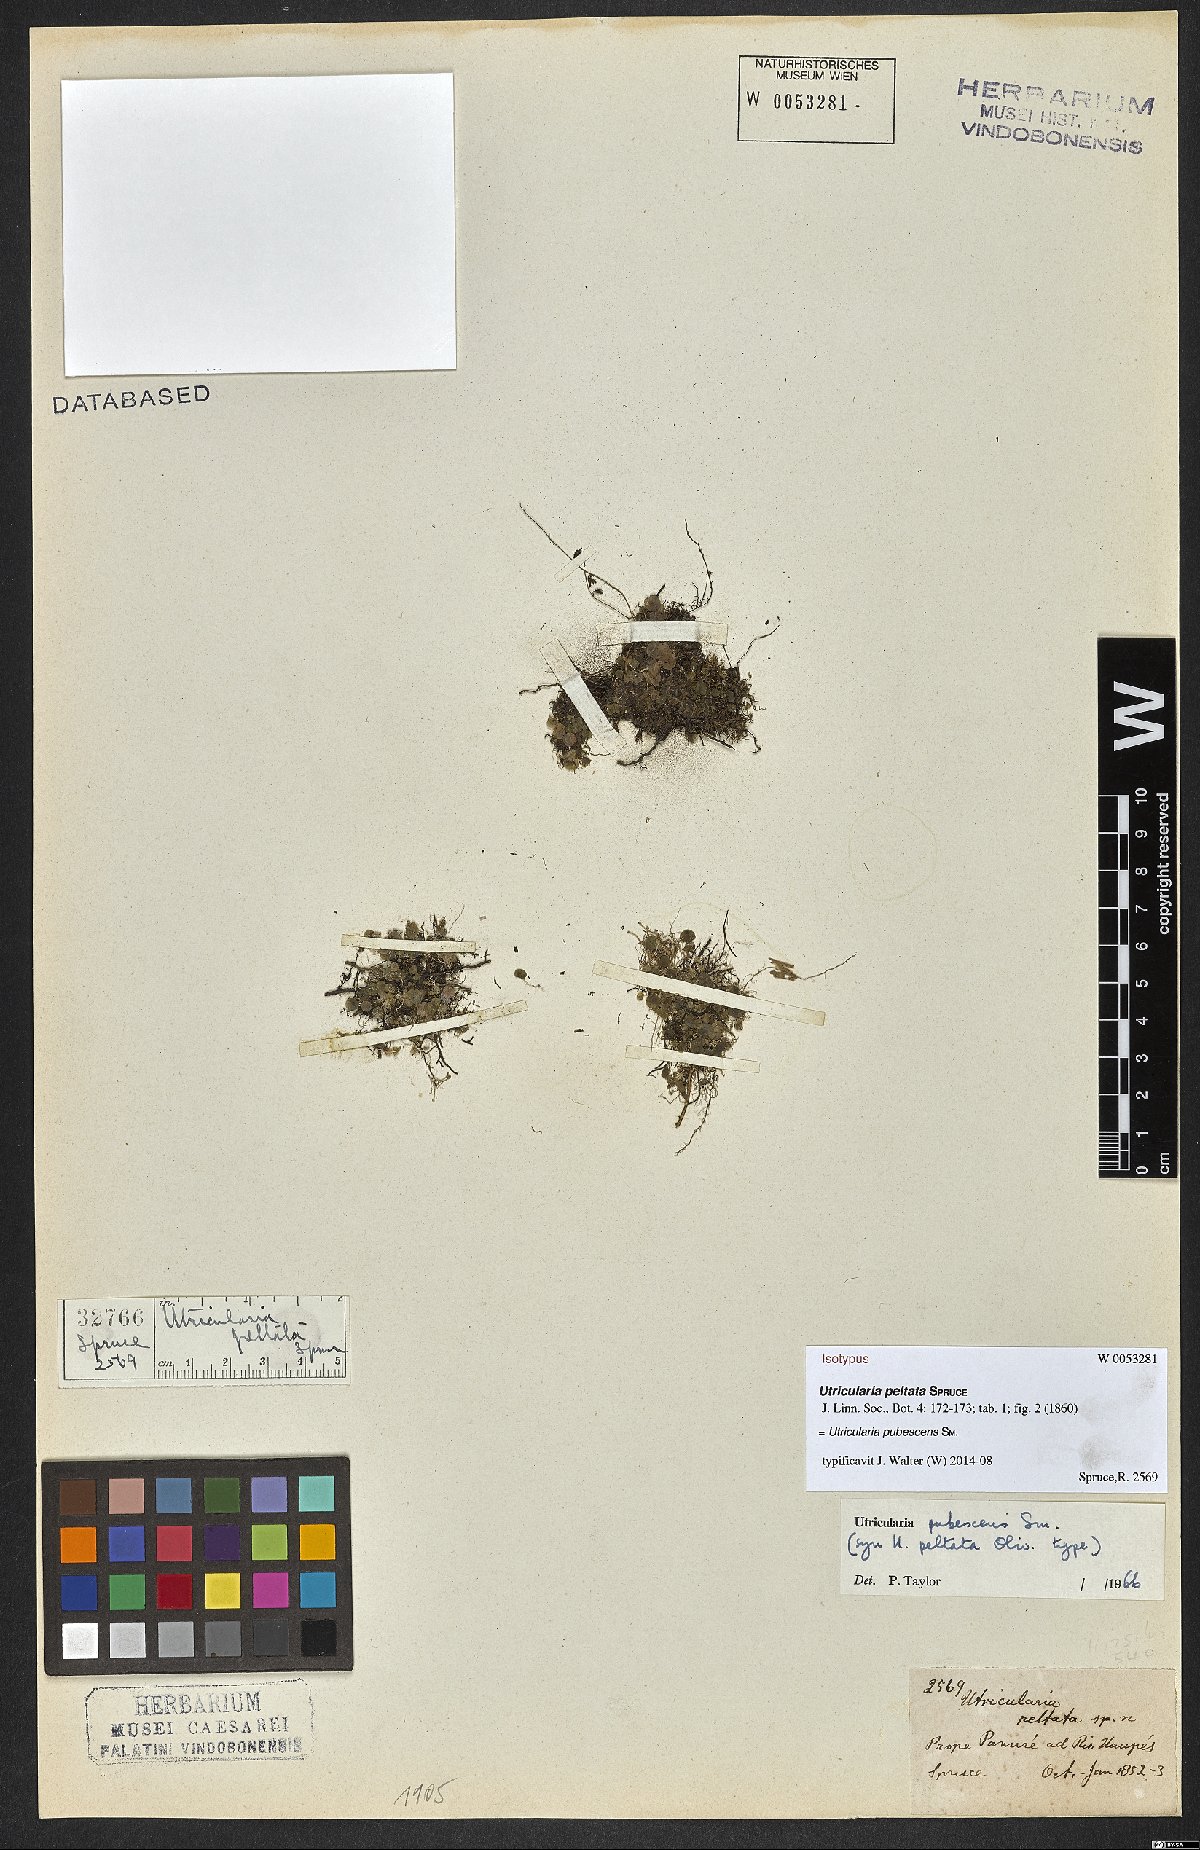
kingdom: Plantae
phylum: Tracheophyta
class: Magnoliopsida
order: Lamiales
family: Lentibulariaceae
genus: Utricularia
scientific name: Utricularia pubescens
